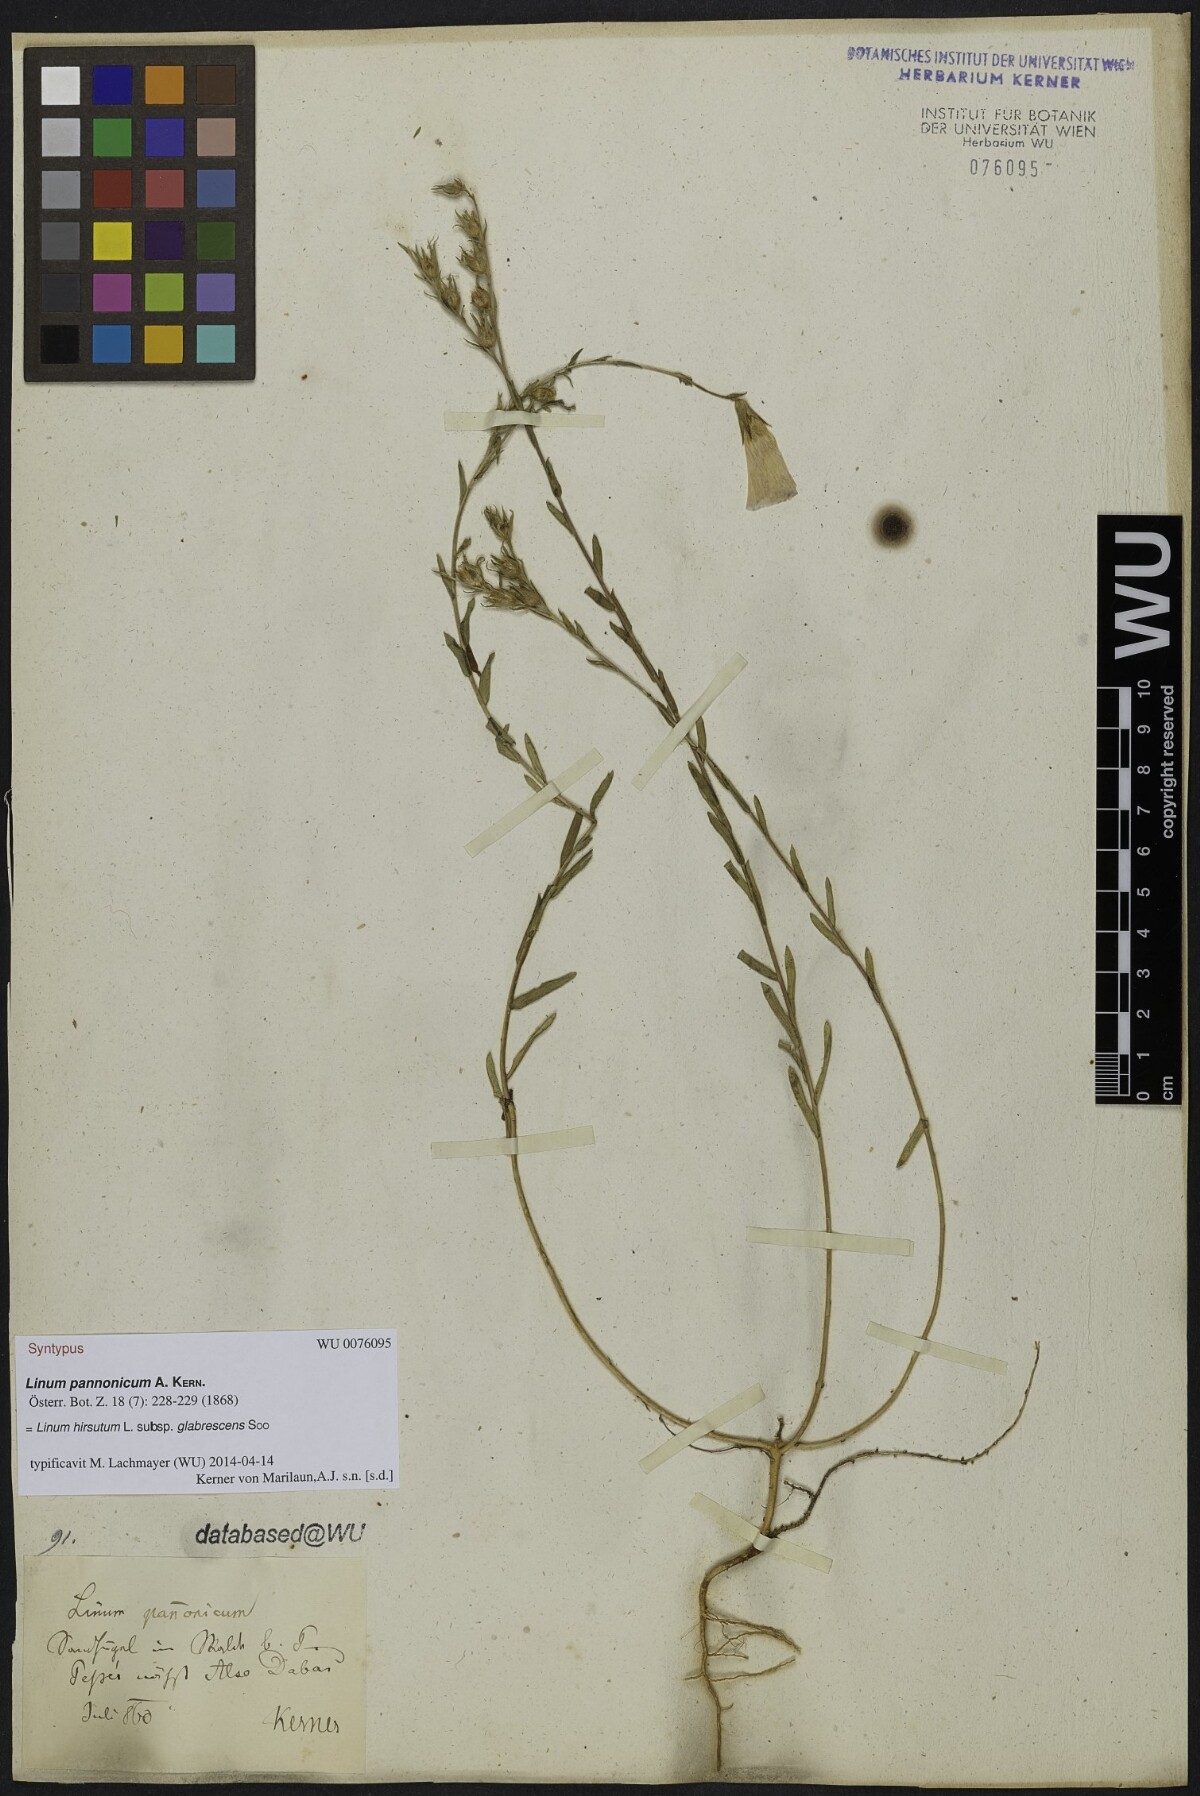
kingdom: Plantae
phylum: Tracheophyta
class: Magnoliopsida
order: Malpighiales
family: Linaceae
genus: Linum
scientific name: Linum hirsutum
